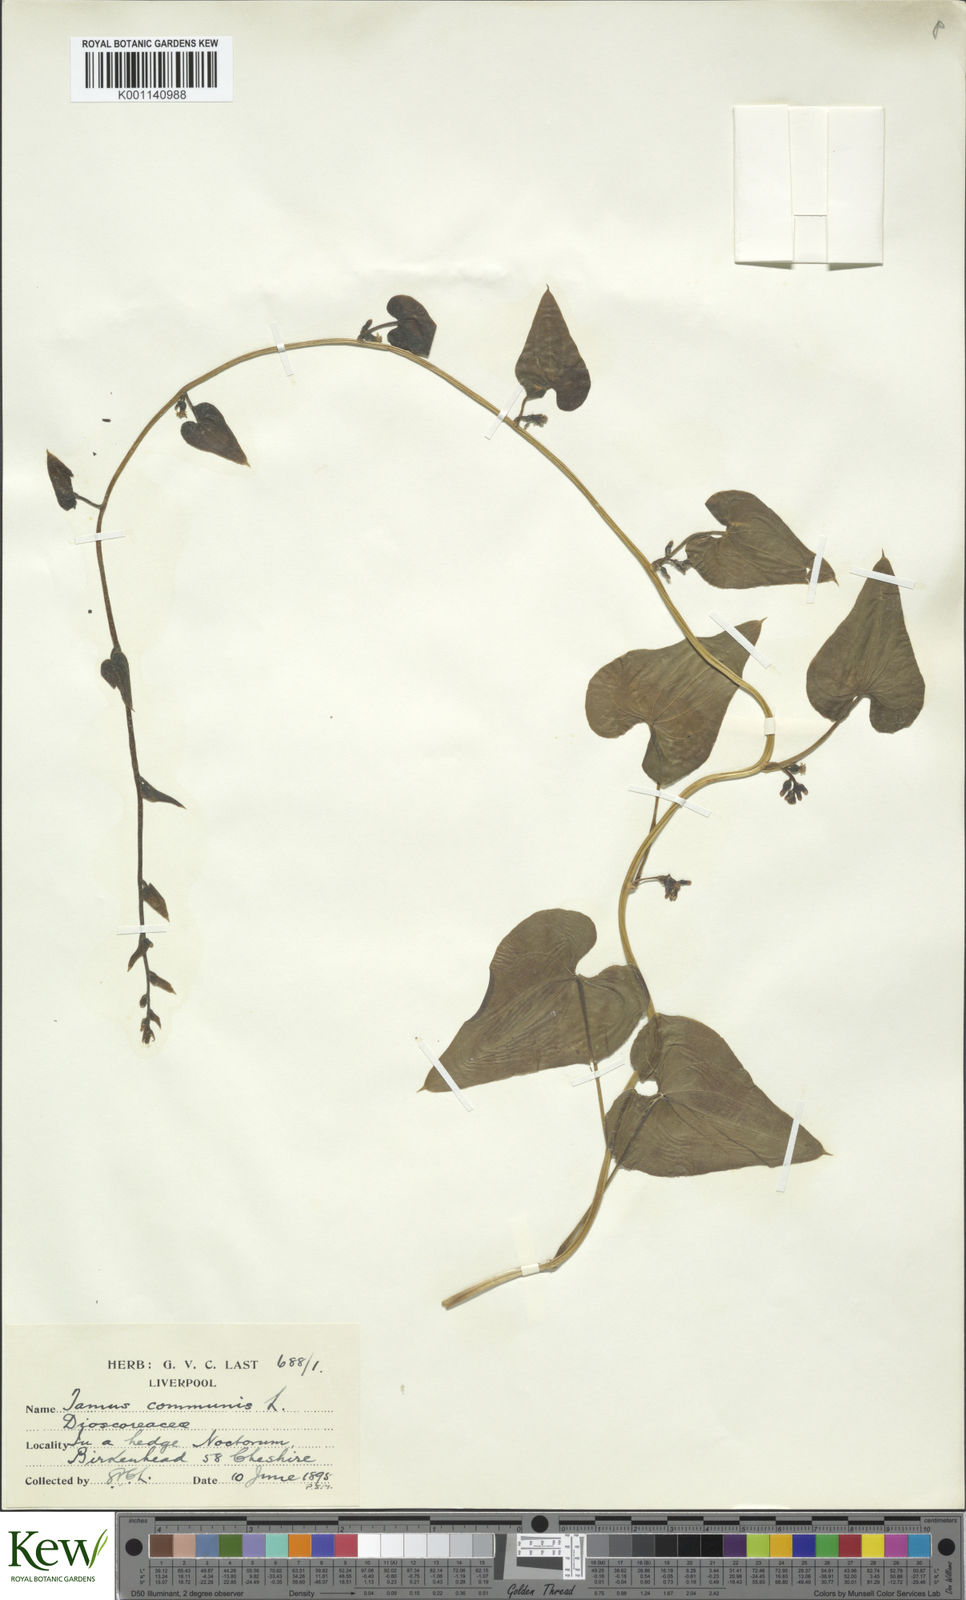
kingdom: Plantae
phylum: Tracheophyta
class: Liliopsida
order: Dioscoreales
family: Dioscoreaceae
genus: Dioscorea
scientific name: Dioscorea communis
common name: Black-bindweed
